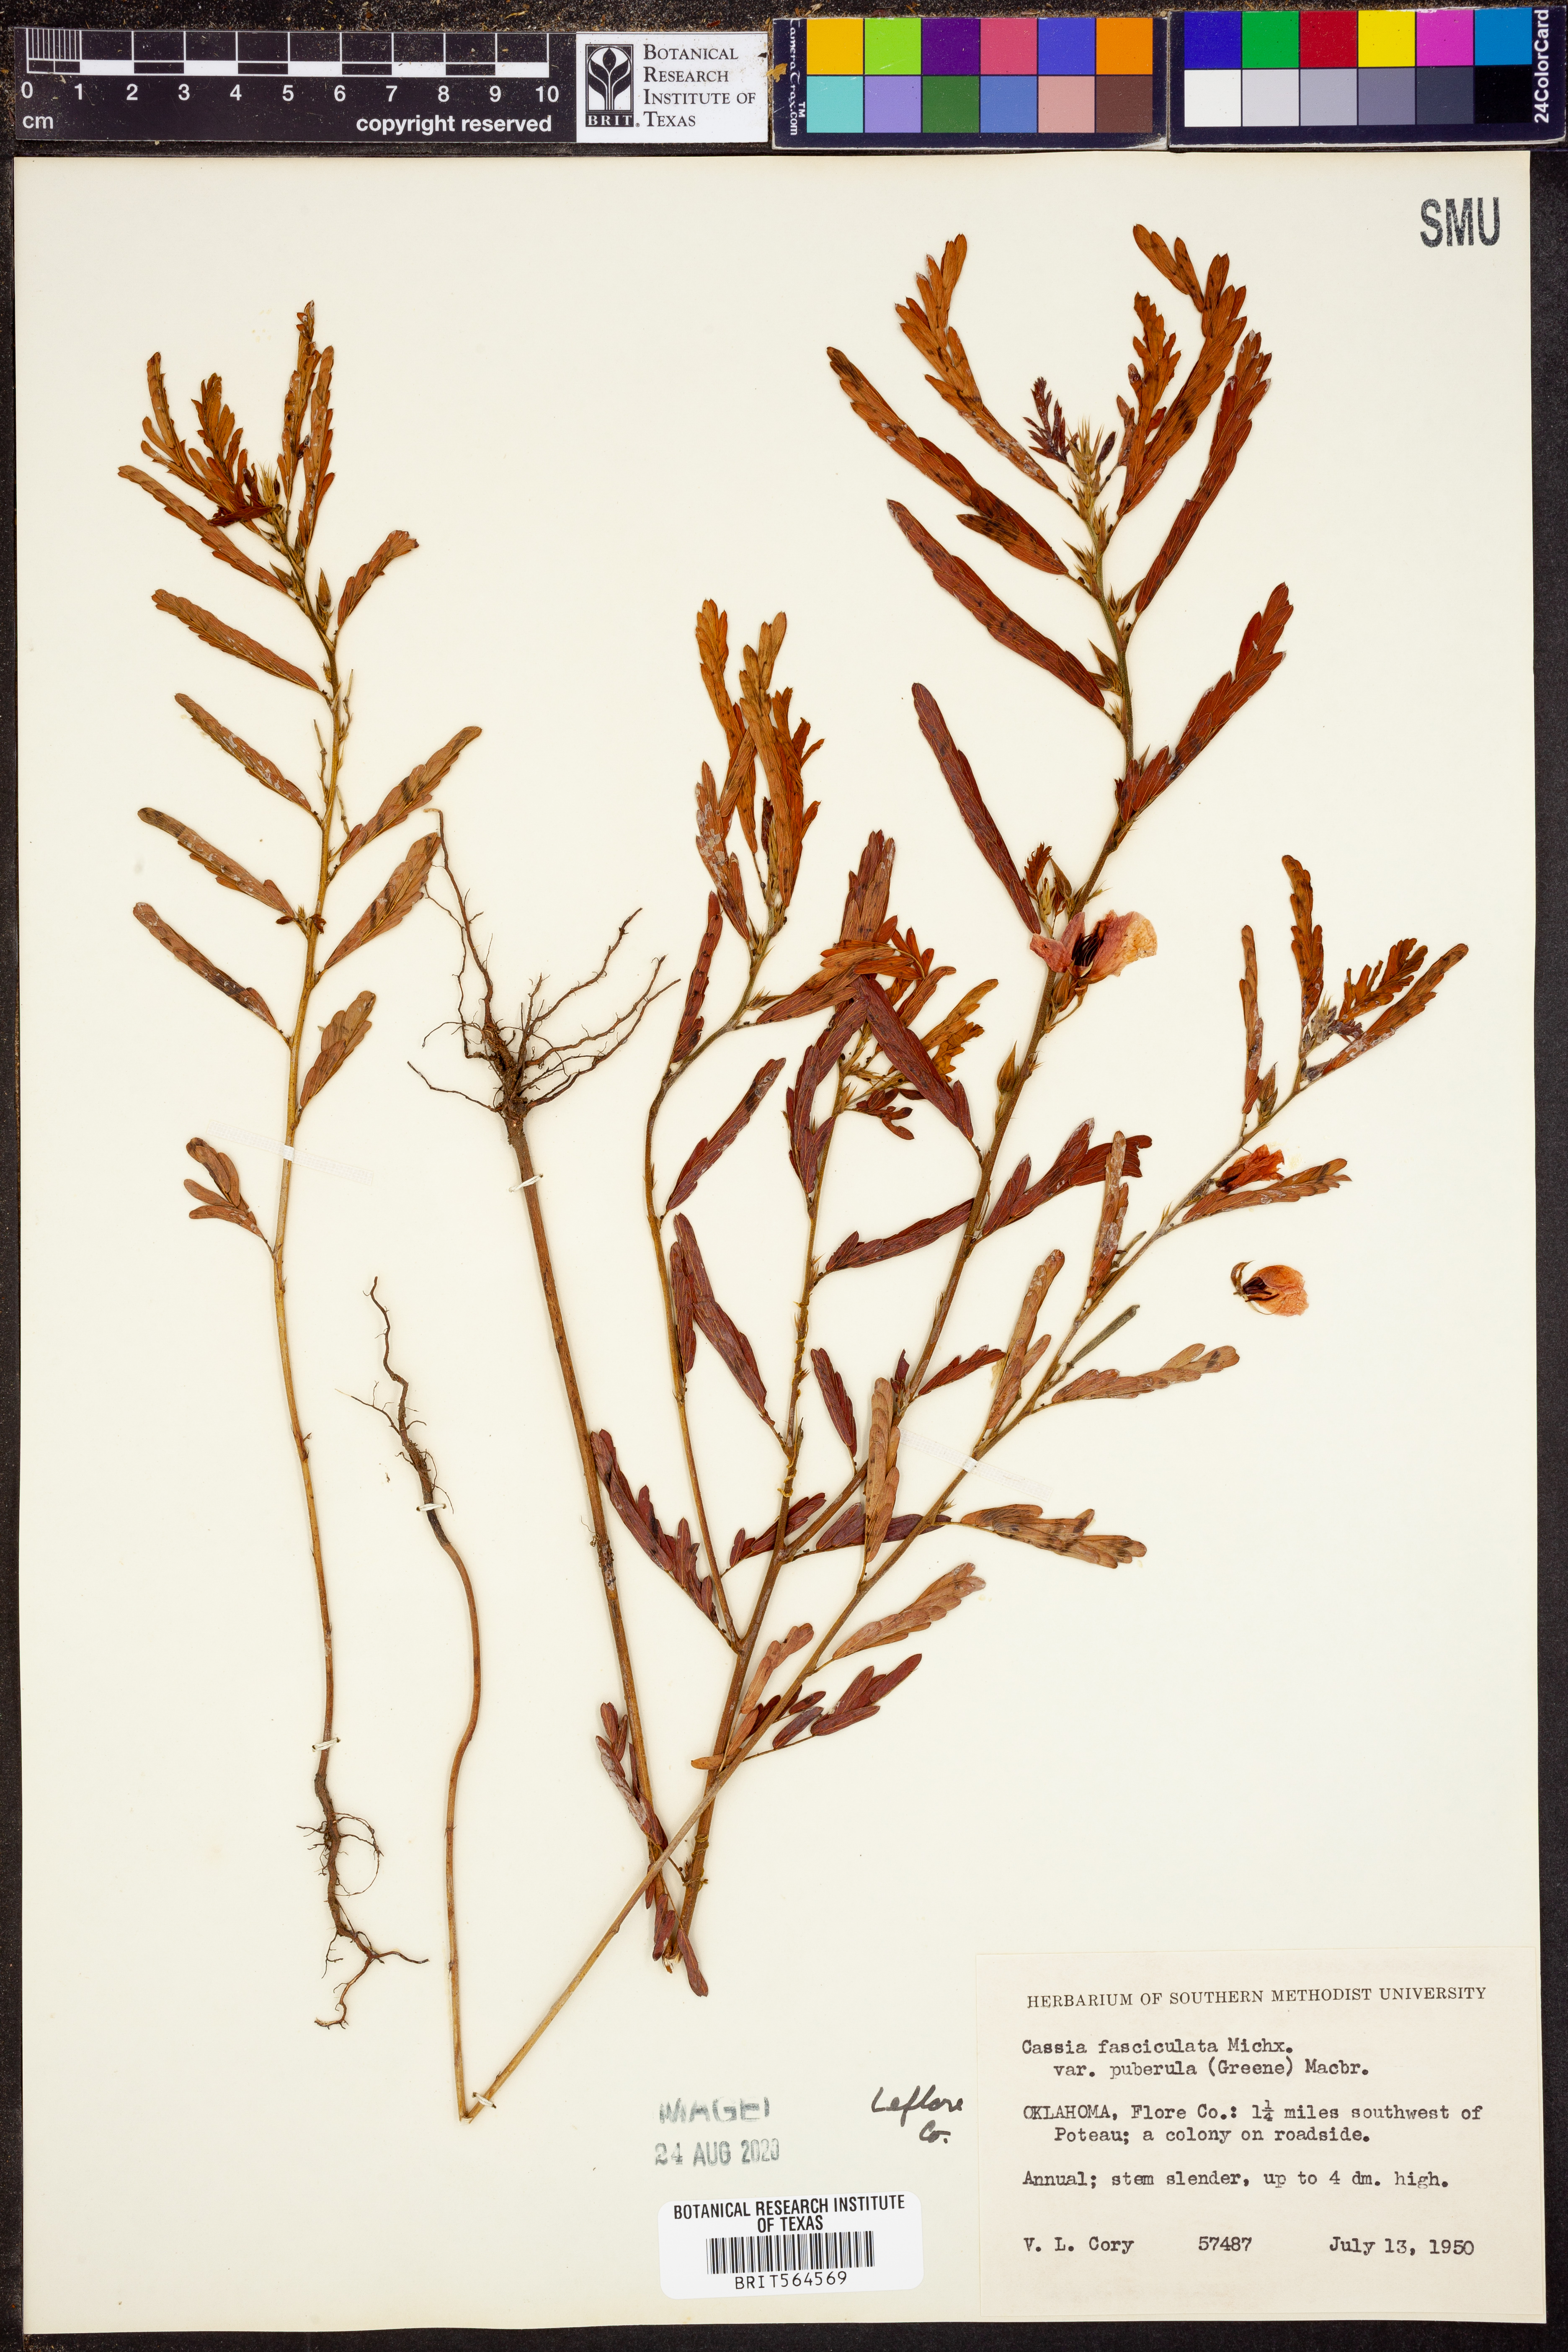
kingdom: Plantae
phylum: Tracheophyta
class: Magnoliopsida
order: Fabales
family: Fabaceae
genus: Chamaecrista
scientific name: Chamaecrista fasciculata
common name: Golden cassia
